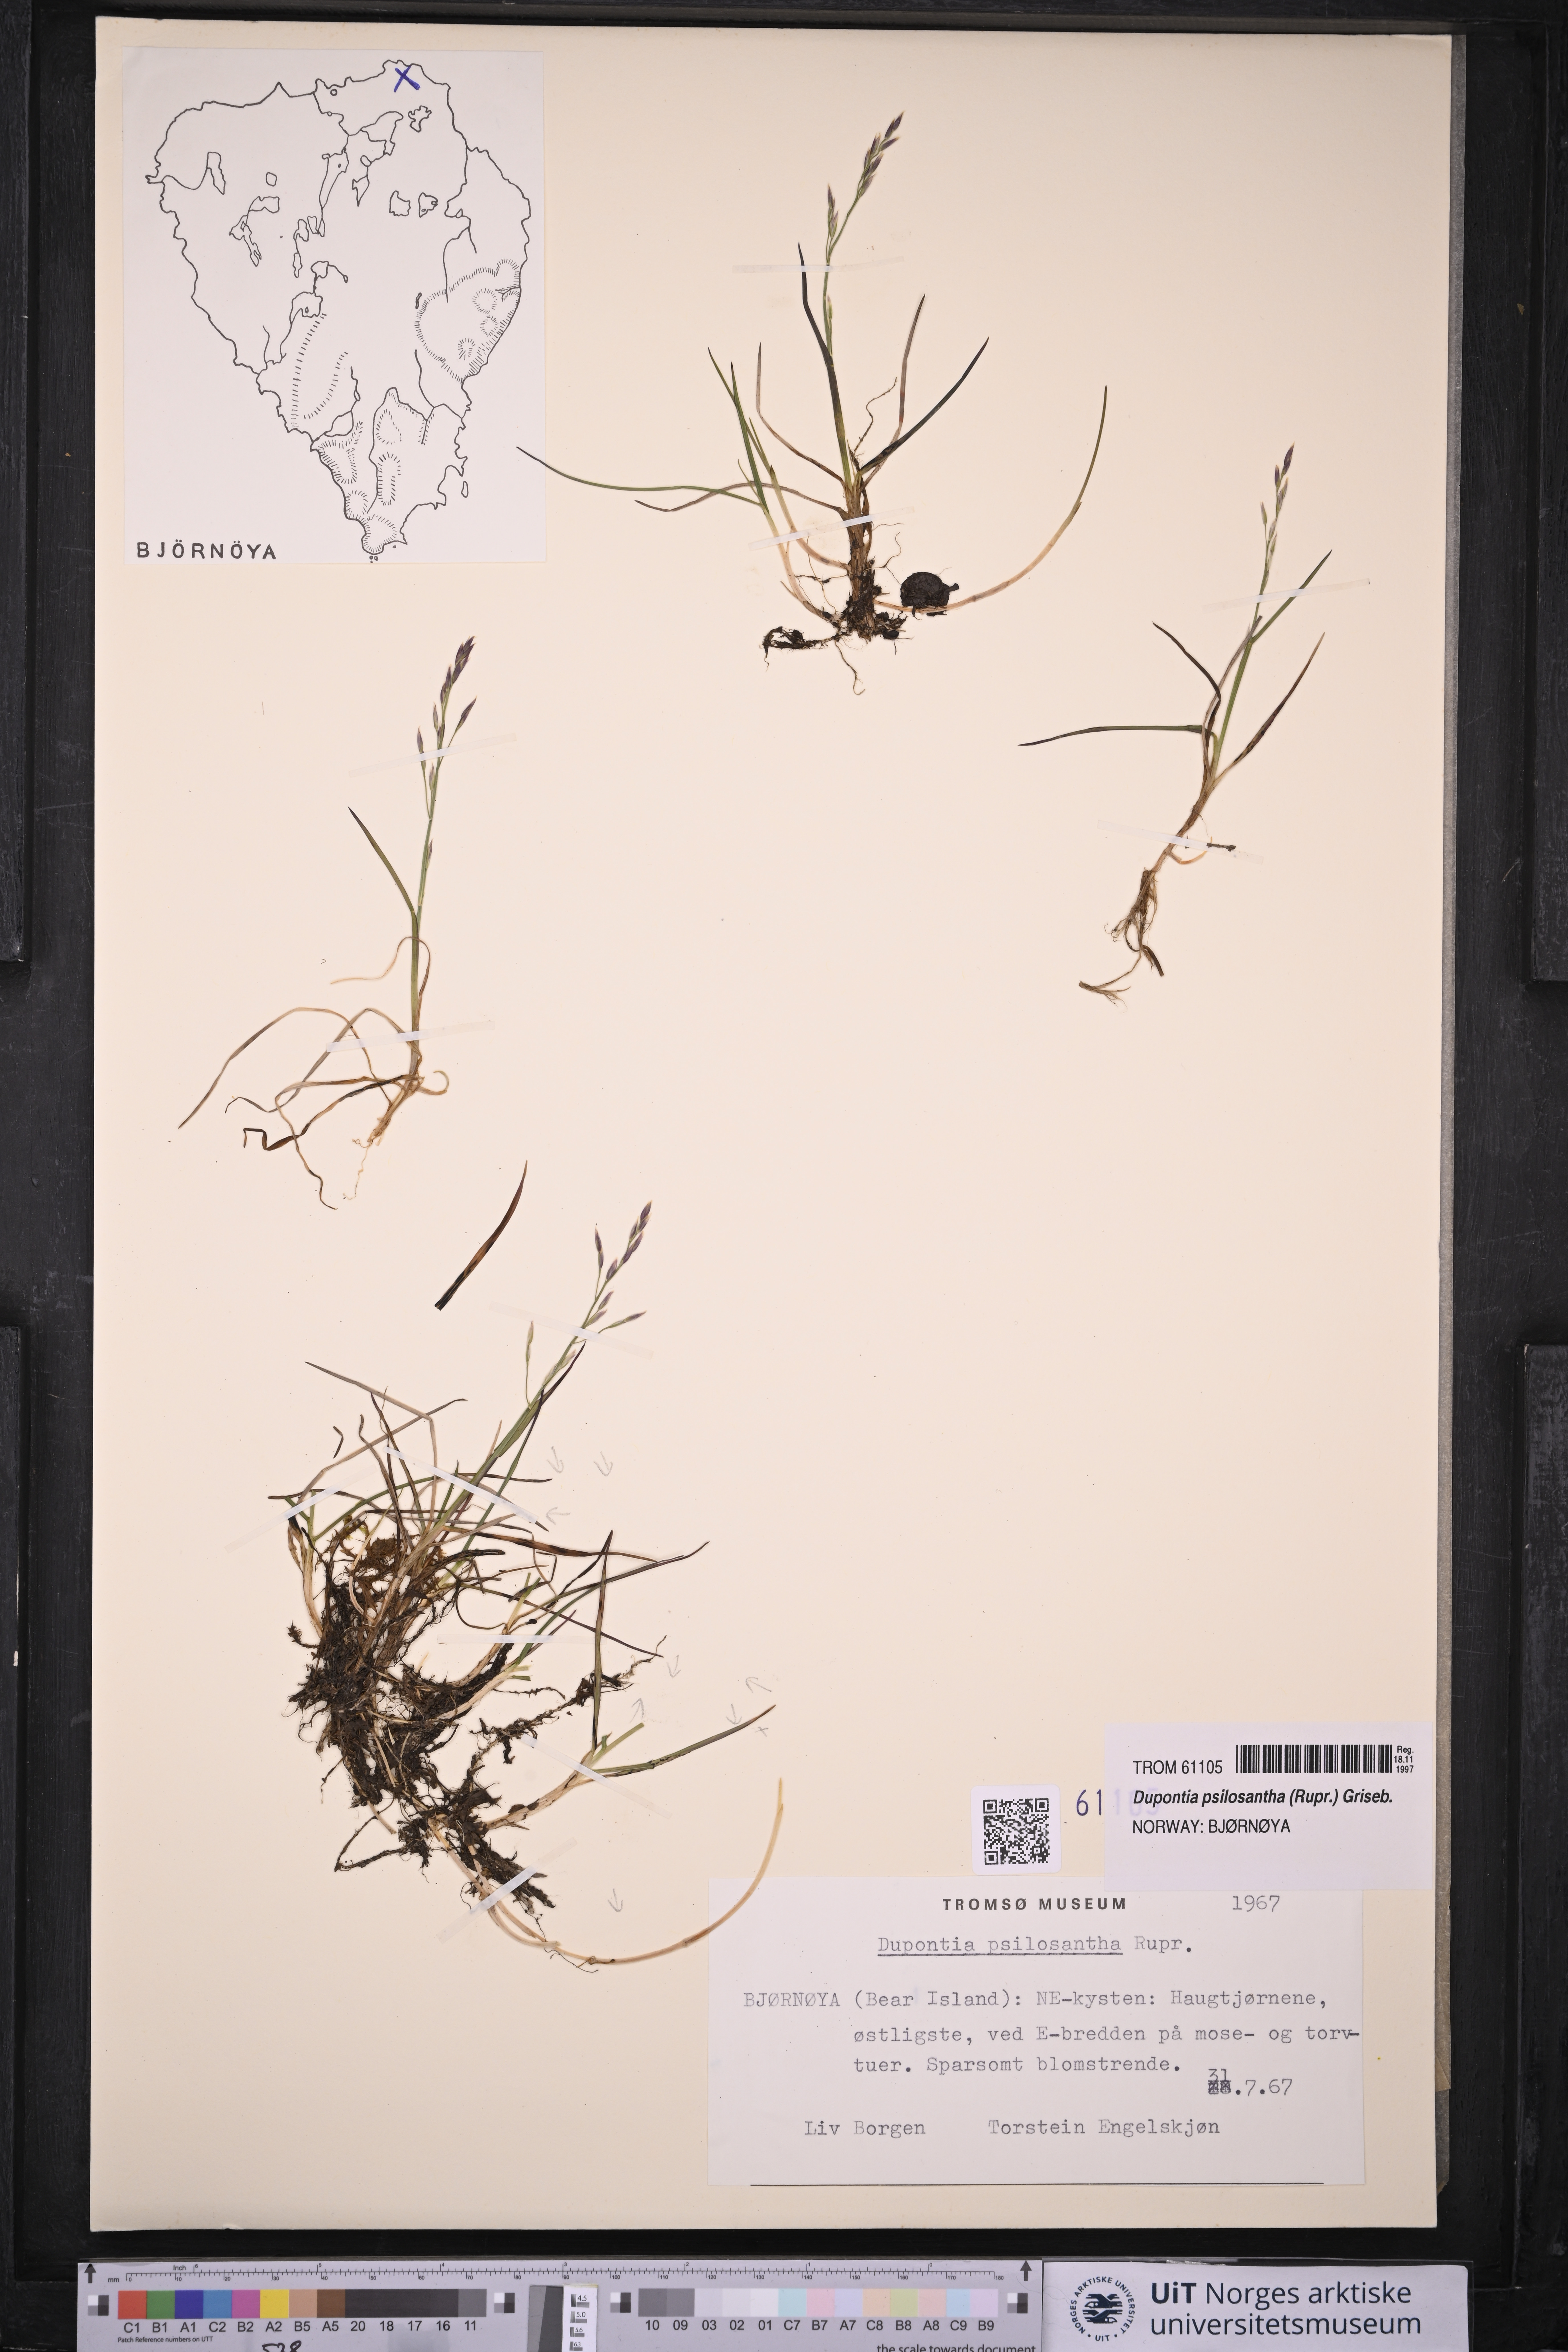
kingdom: Plantae
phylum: Tracheophyta
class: Liliopsida
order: Poales
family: Poaceae
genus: Dupontia
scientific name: Dupontia fisheri
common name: Tundra grass
